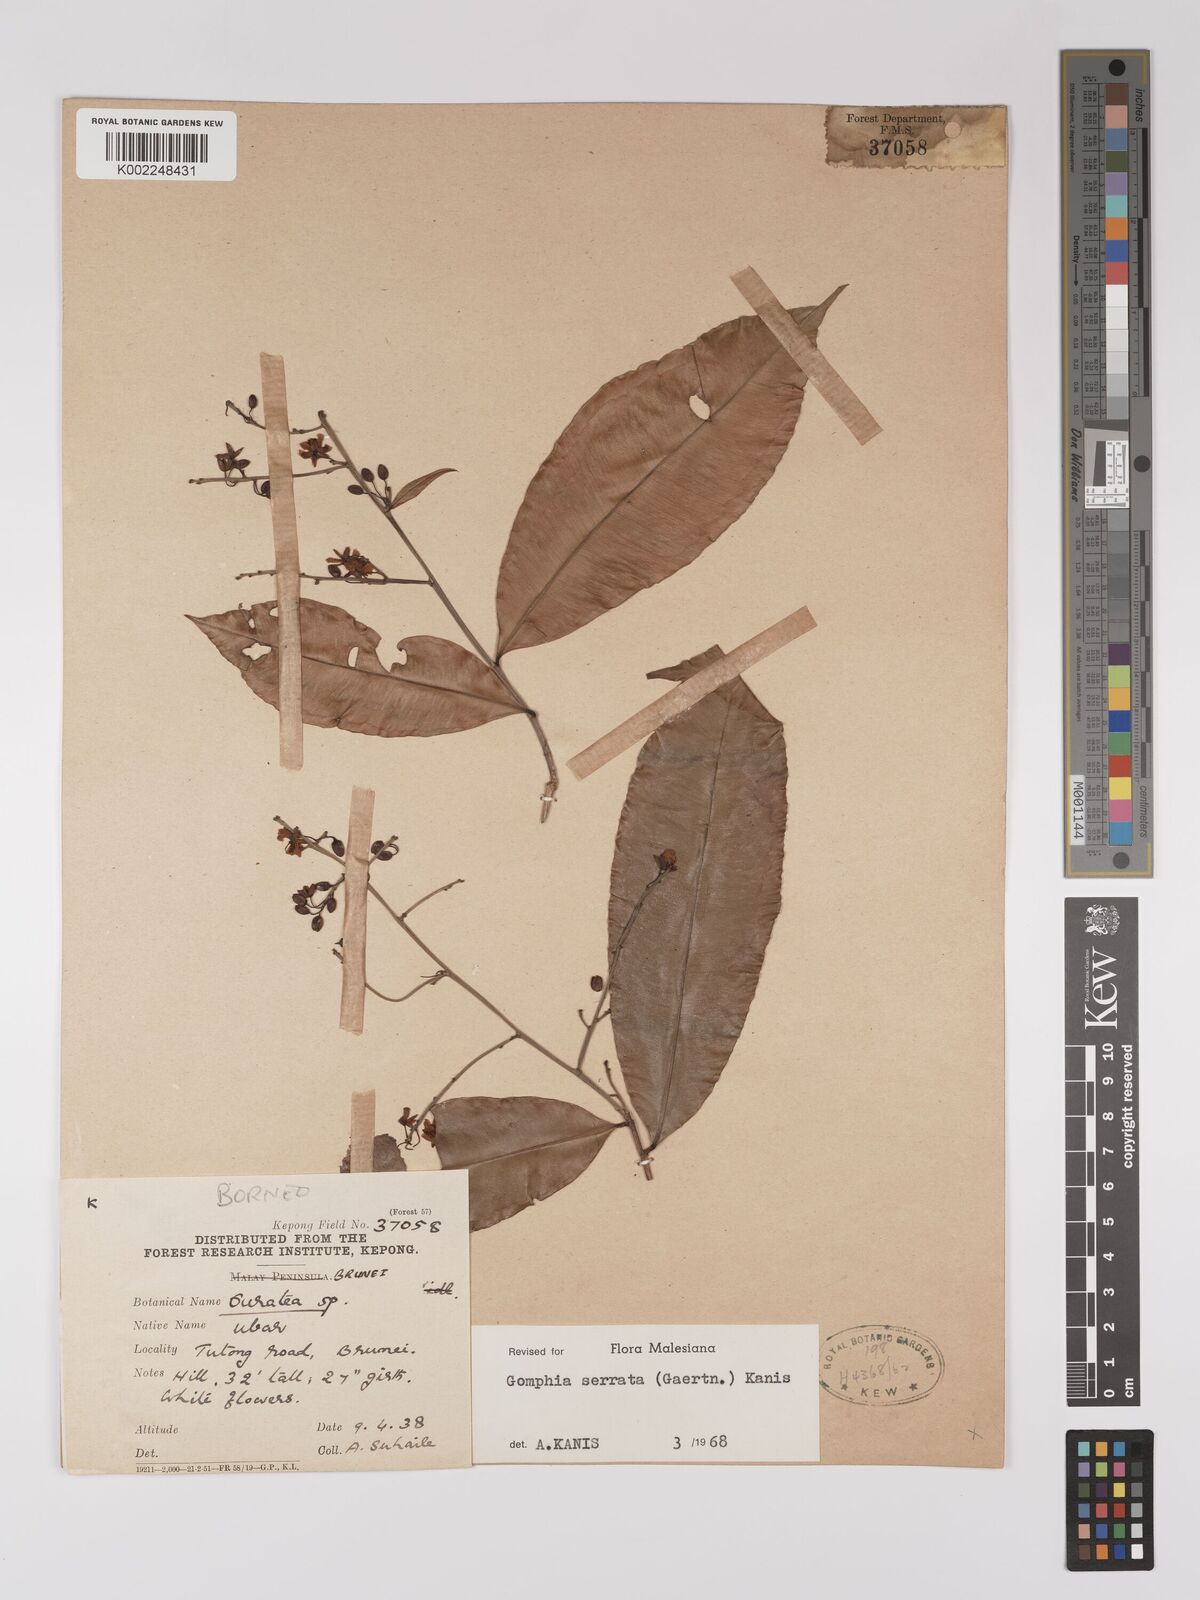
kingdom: Plantae
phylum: Tracheophyta
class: Magnoliopsida
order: Malpighiales
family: Ochnaceae
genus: Gomphia
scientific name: Gomphia serrata
